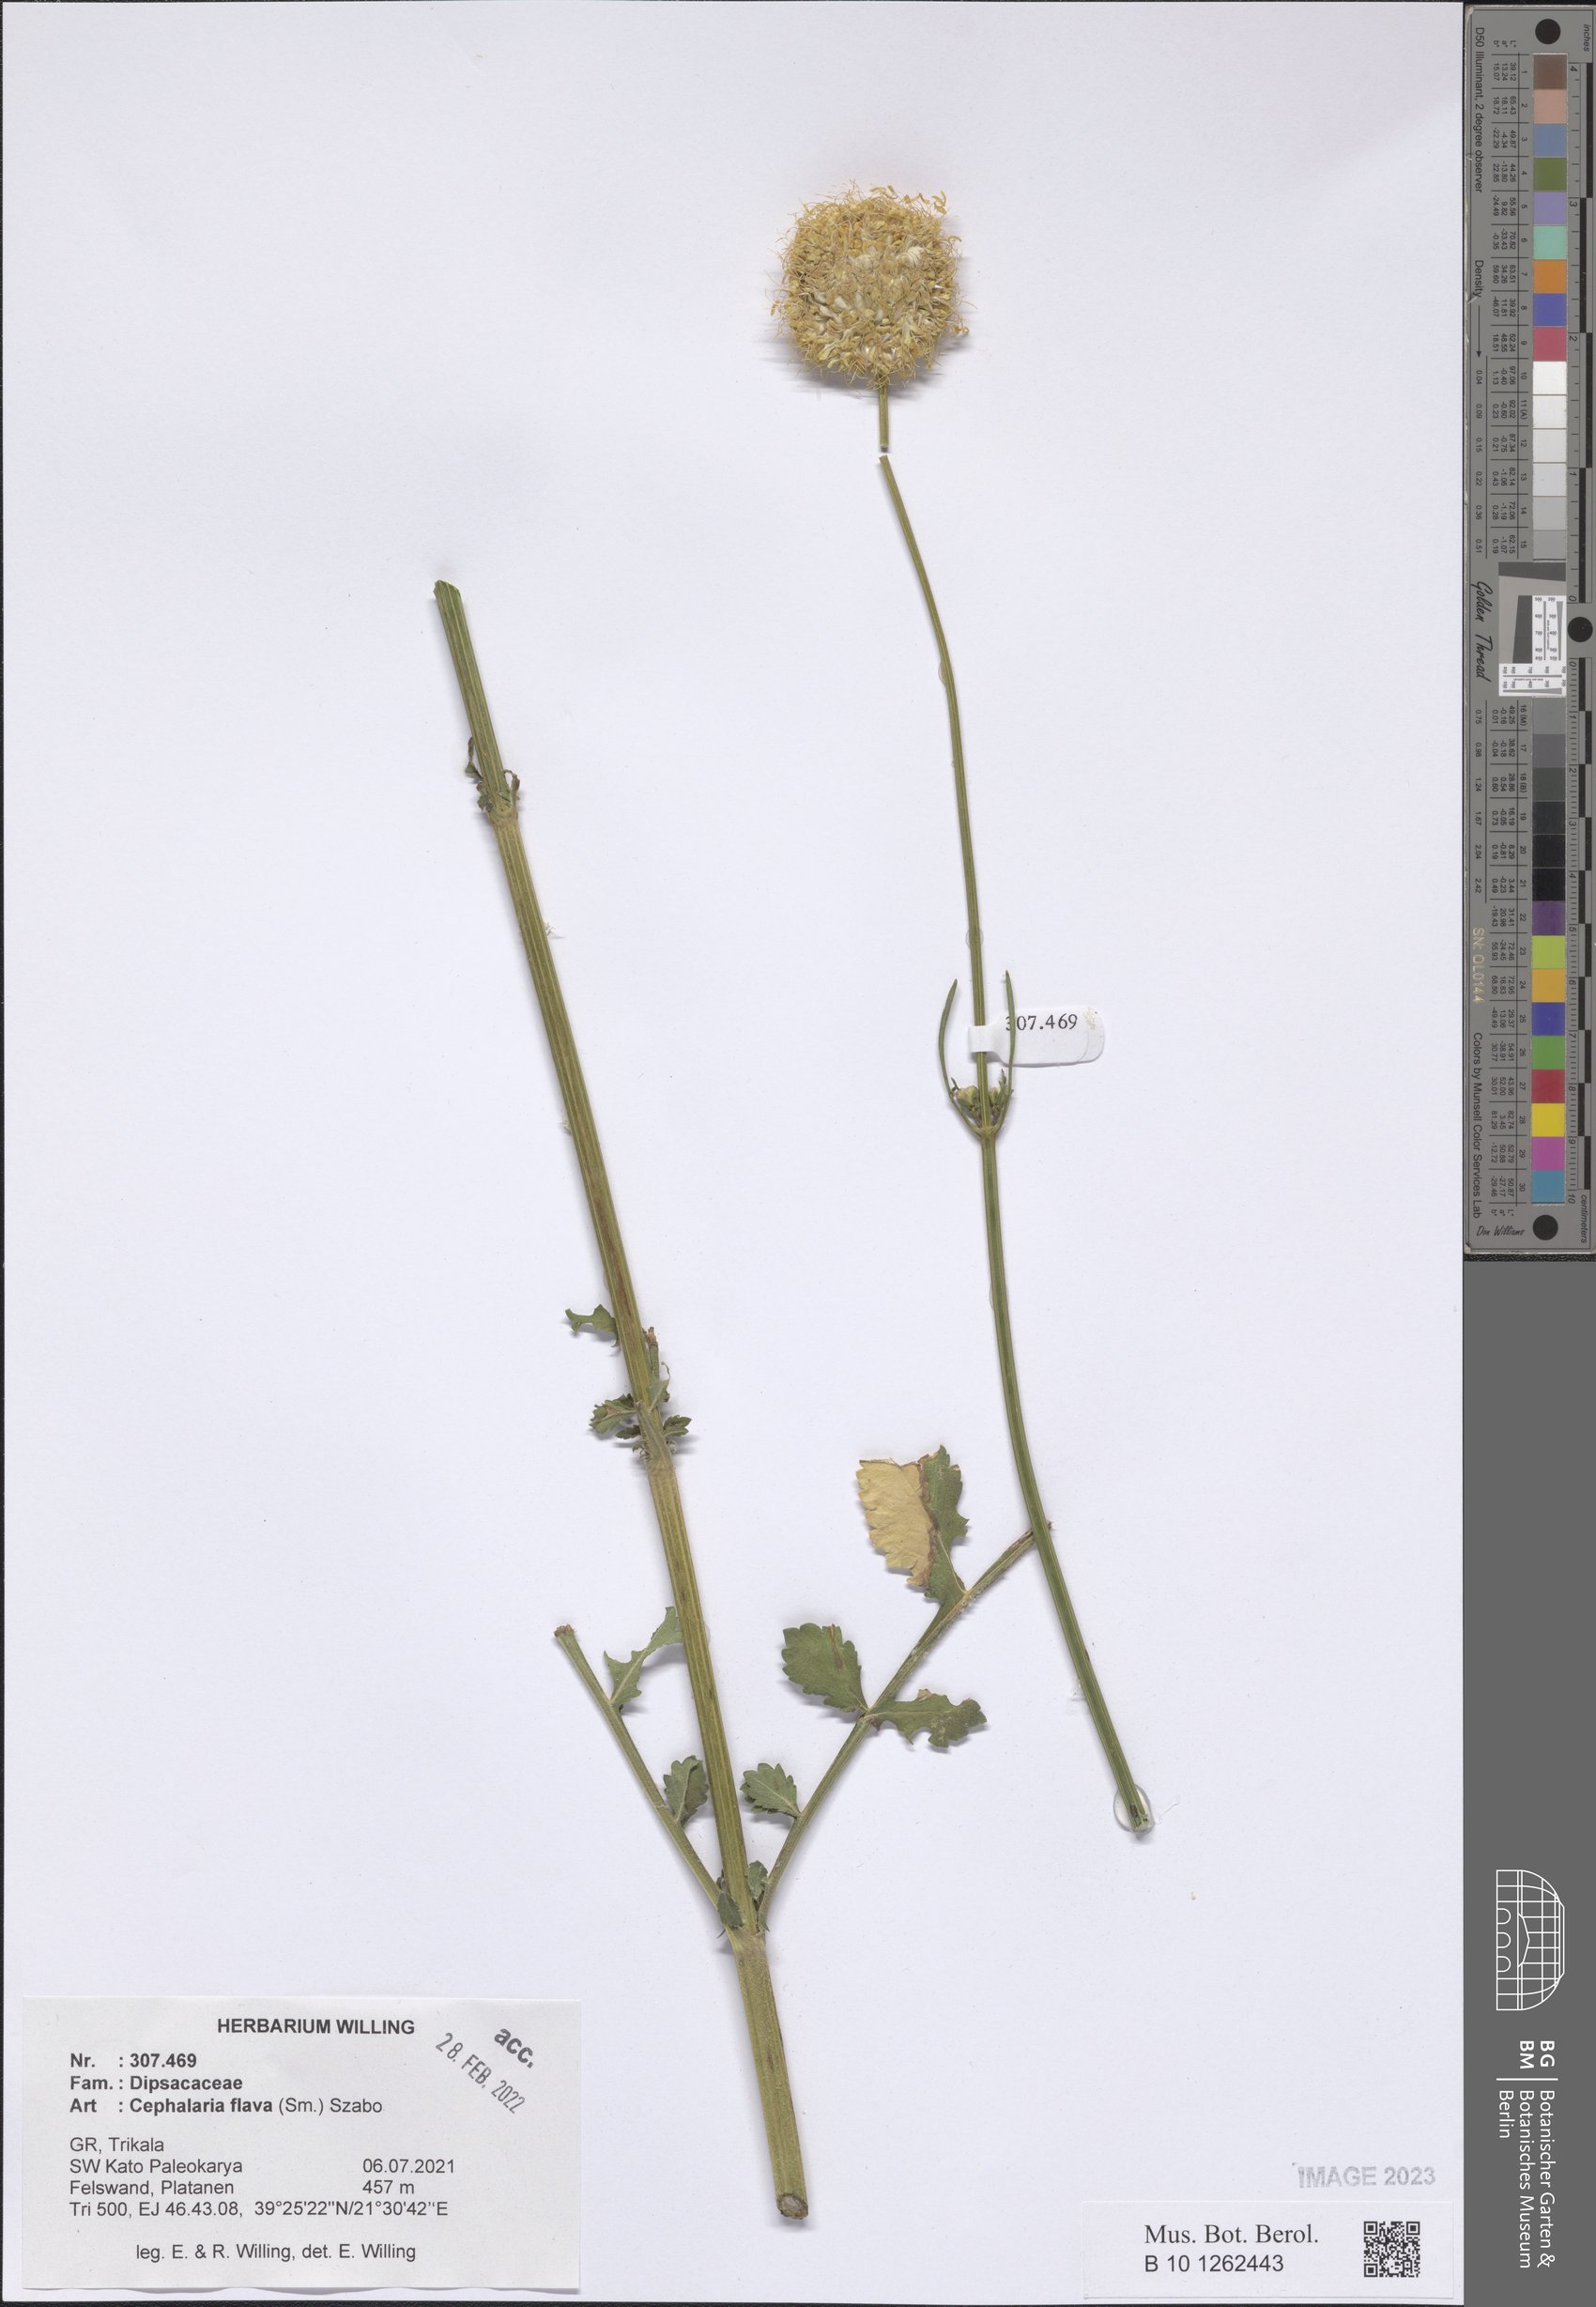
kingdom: Plantae
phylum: Tracheophyta
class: Magnoliopsida
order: Dipsacales
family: Caprifoliaceae
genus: Cephalaria
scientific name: Cephalaria flava
